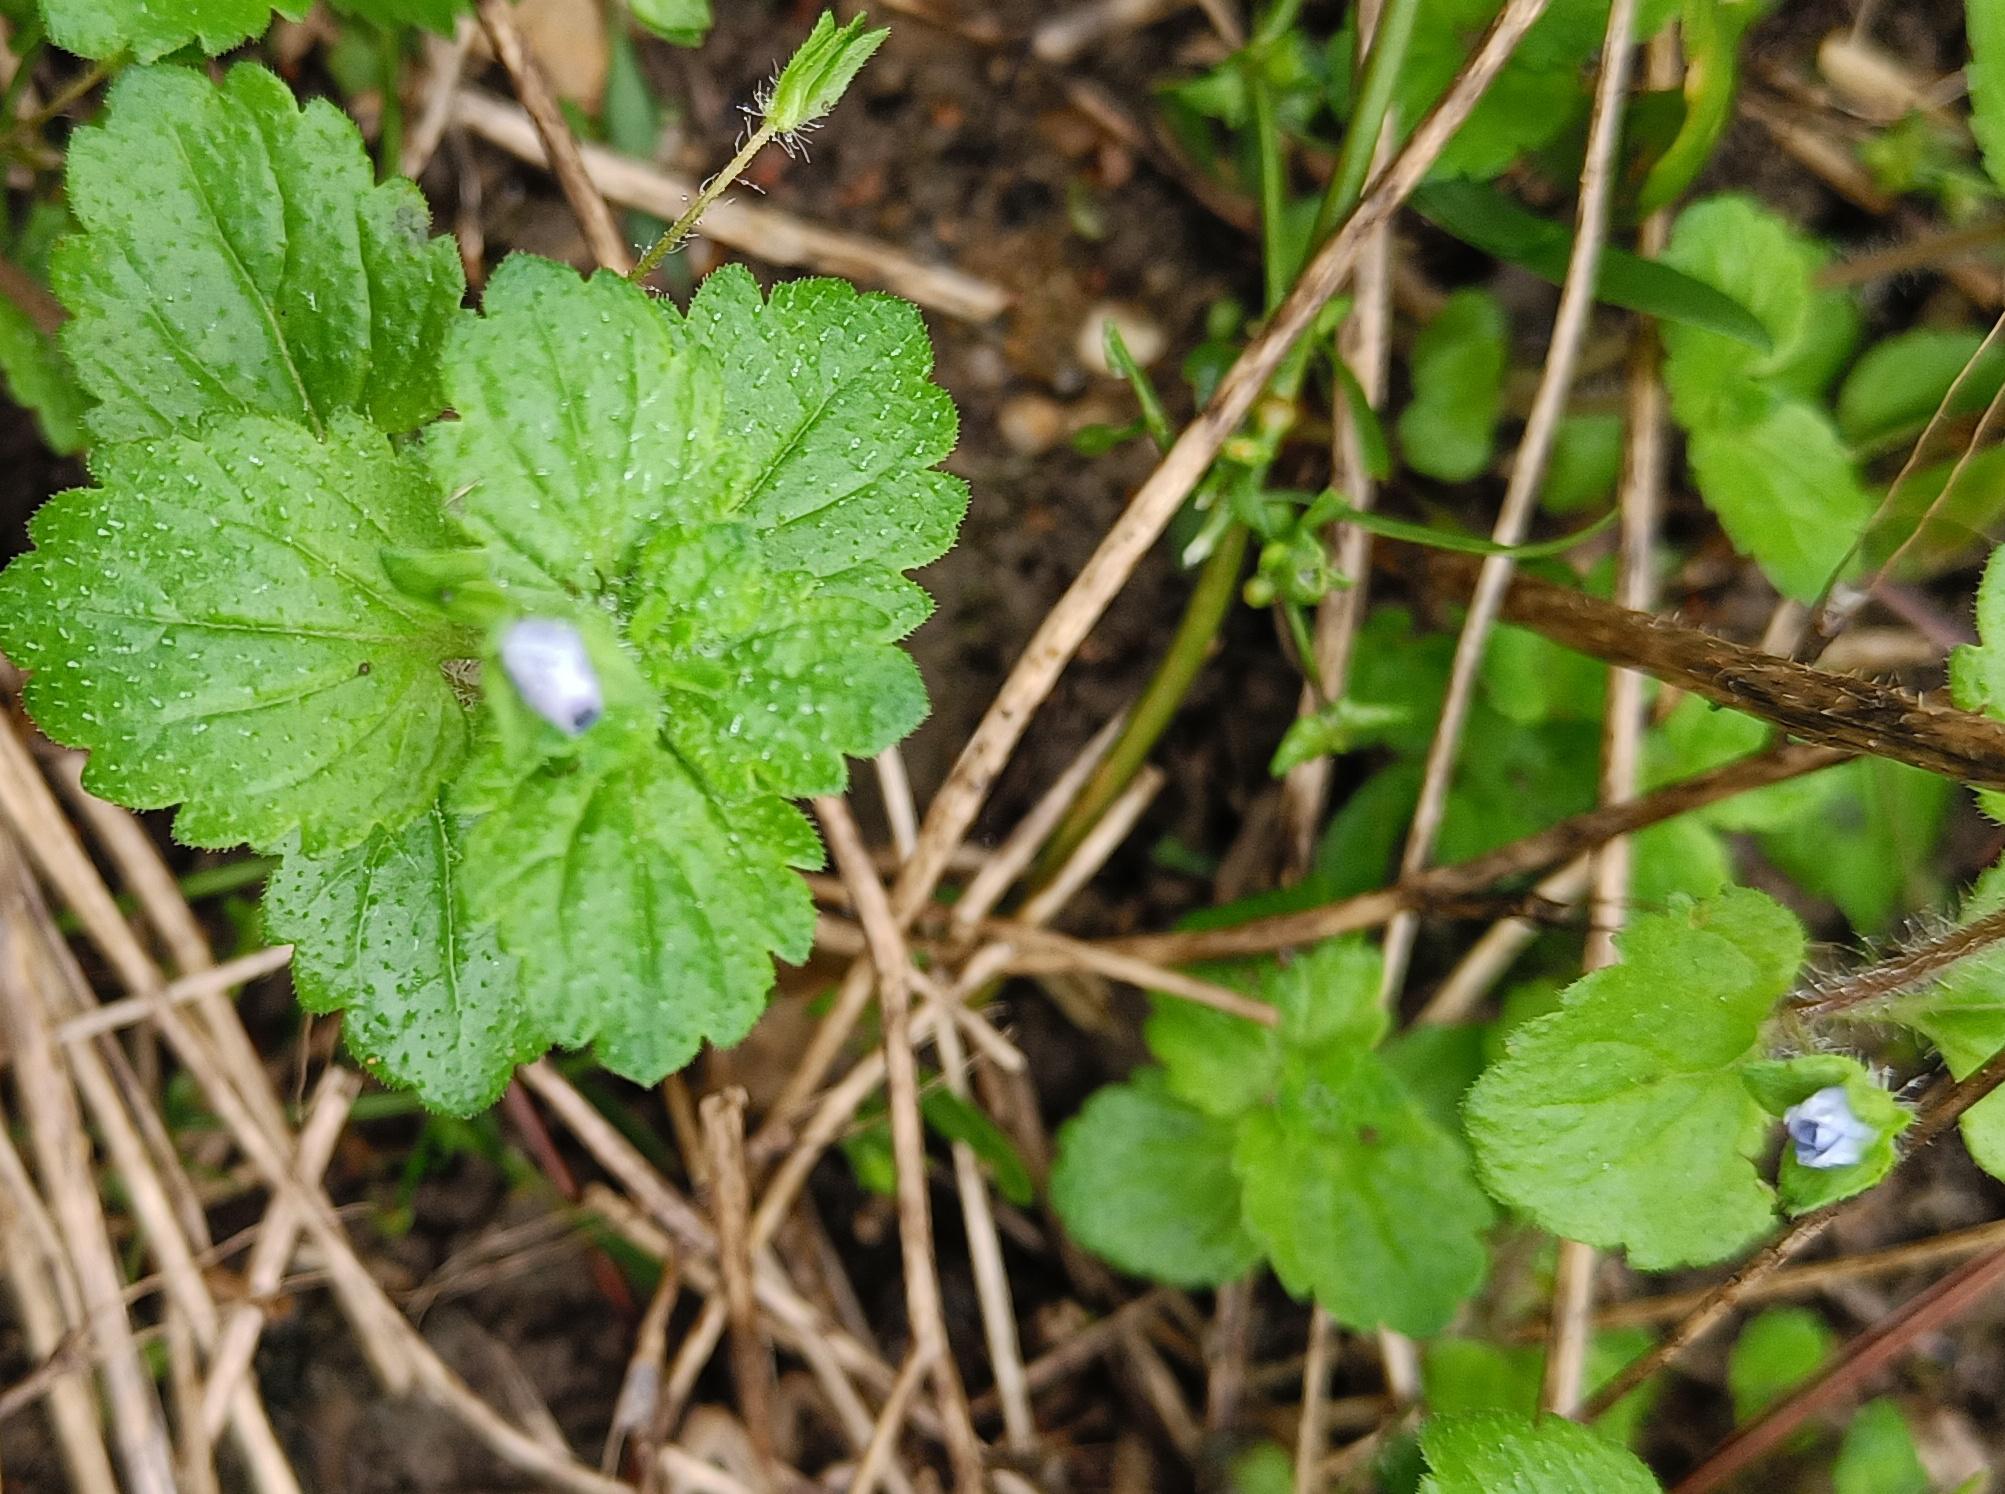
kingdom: Plantae
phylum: Tracheophyta
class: Magnoliopsida
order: Lamiales
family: Plantaginaceae
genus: Veronica
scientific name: Veronica persica
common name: Storkronet ærenpris
